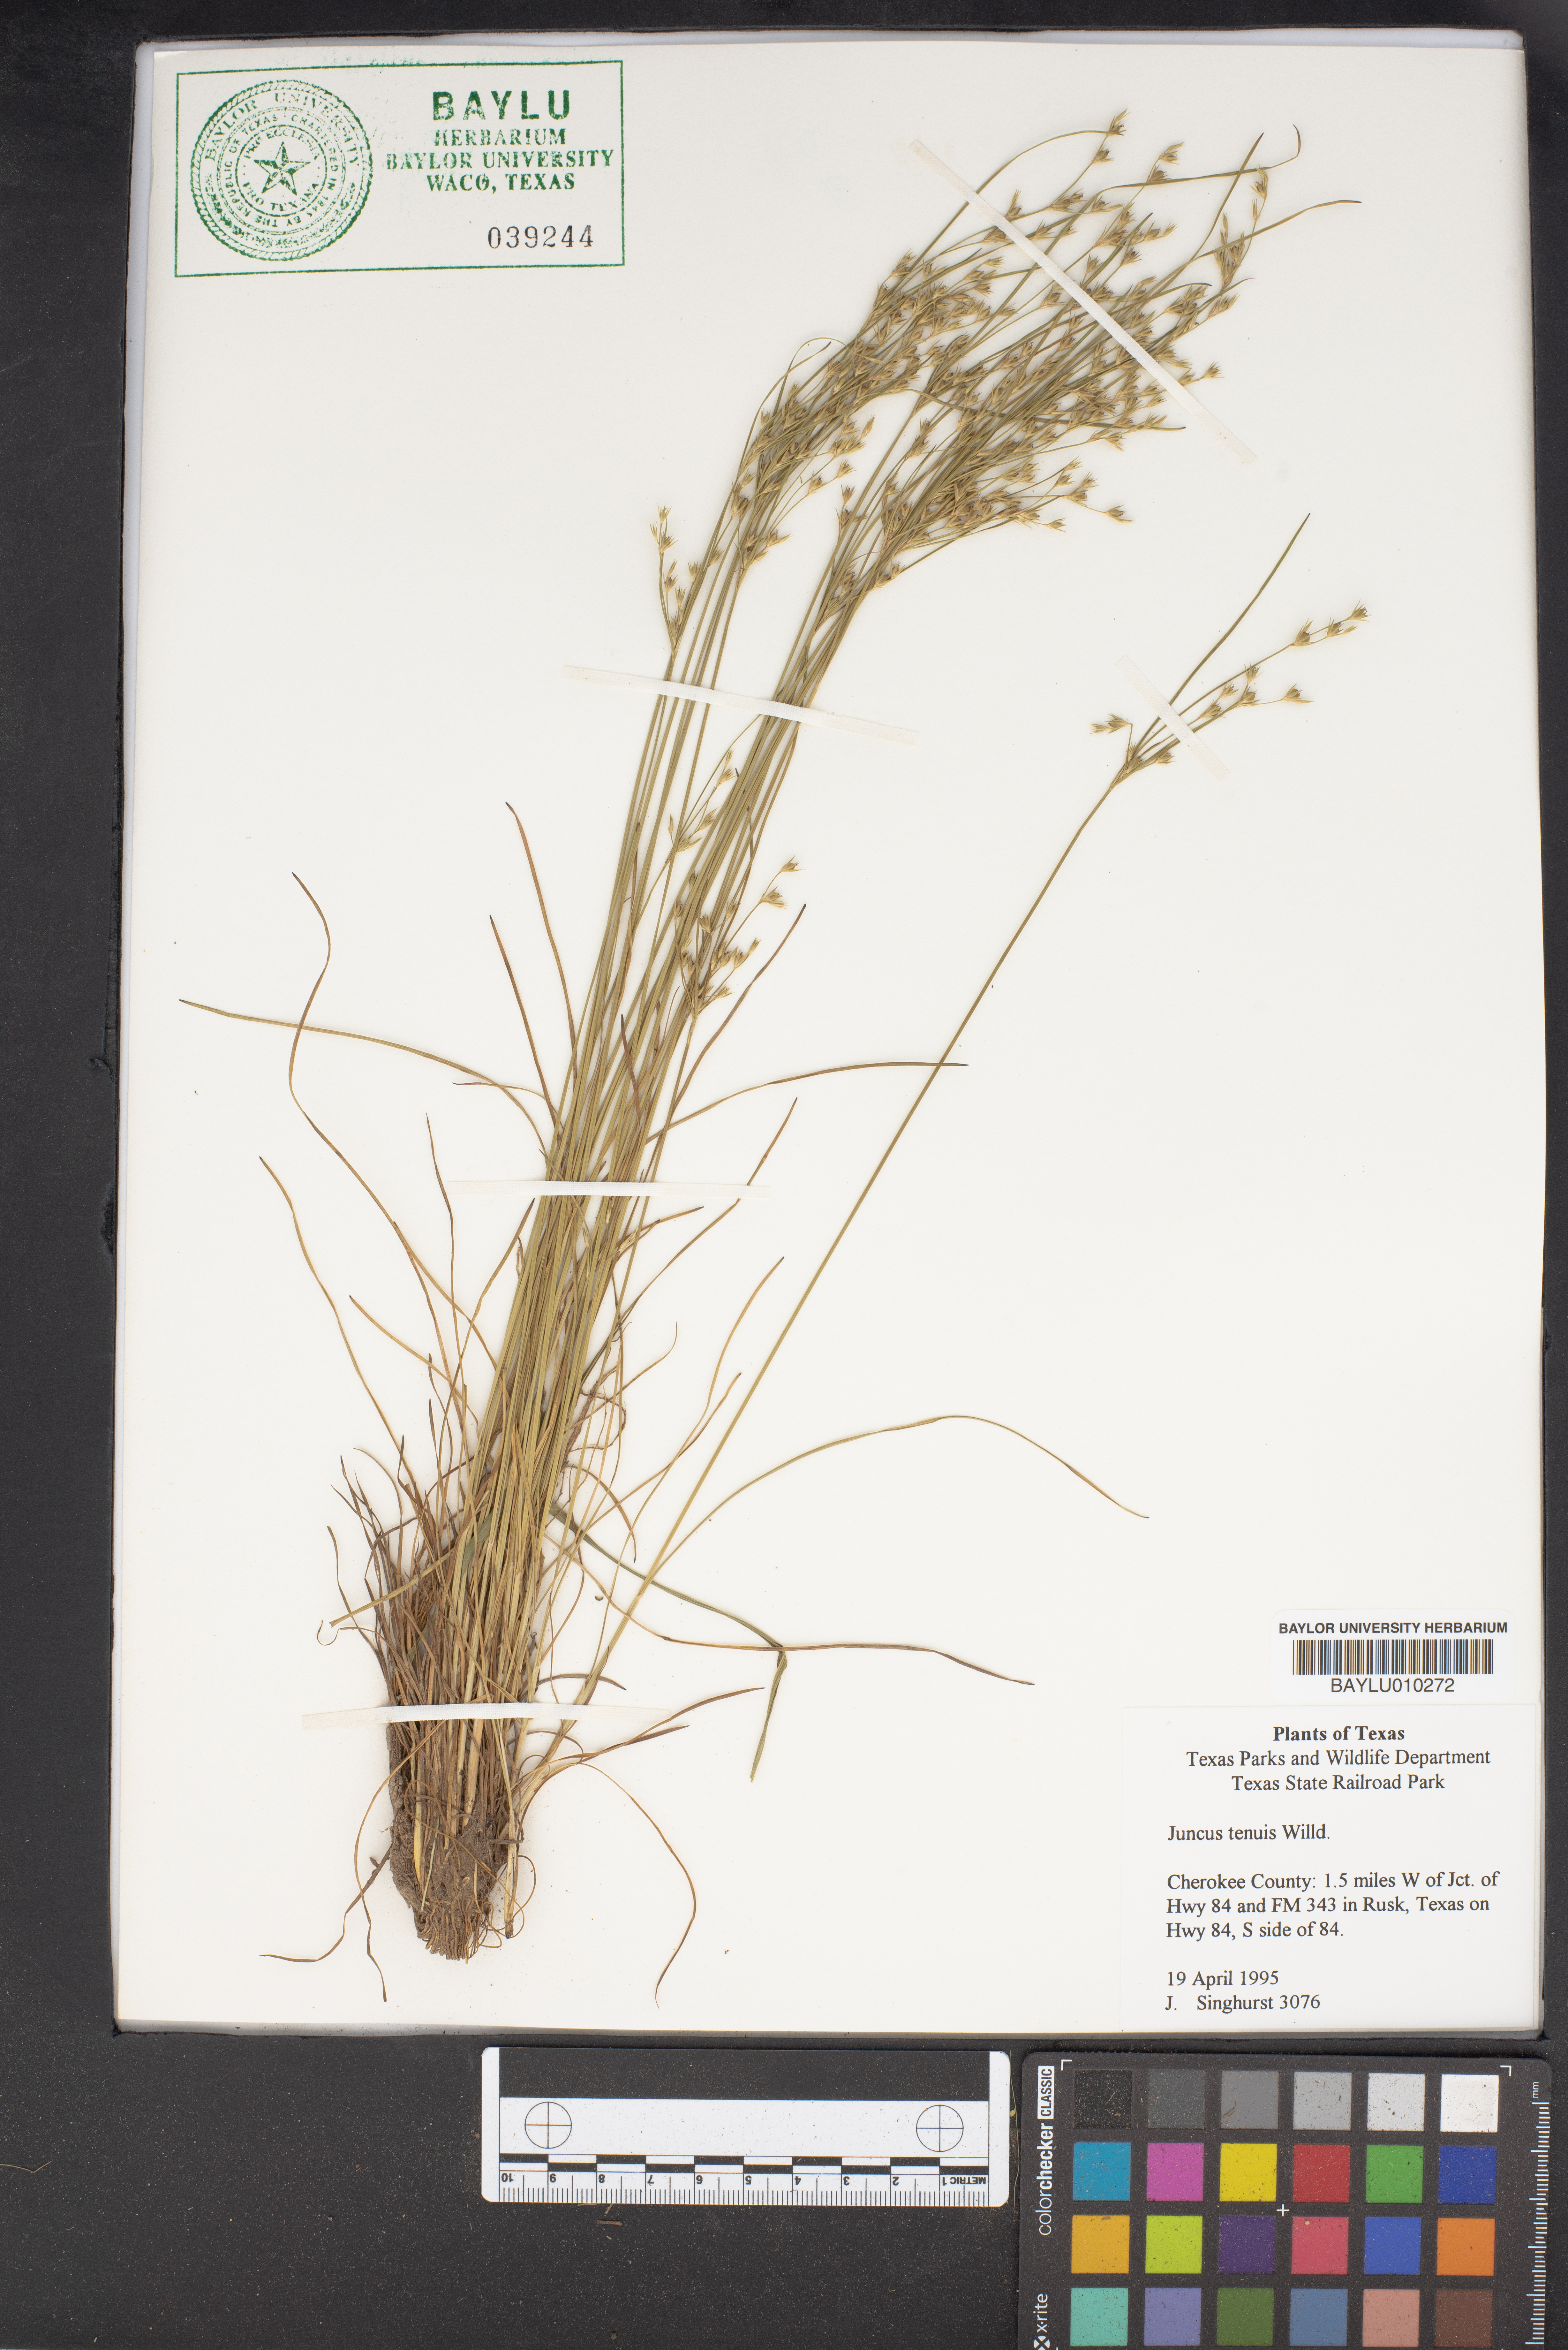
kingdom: Plantae
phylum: Tracheophyta
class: Liliopsida
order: Poales
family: Juncaceae
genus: Juncus
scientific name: Juncus tenuis
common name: Slender rush
